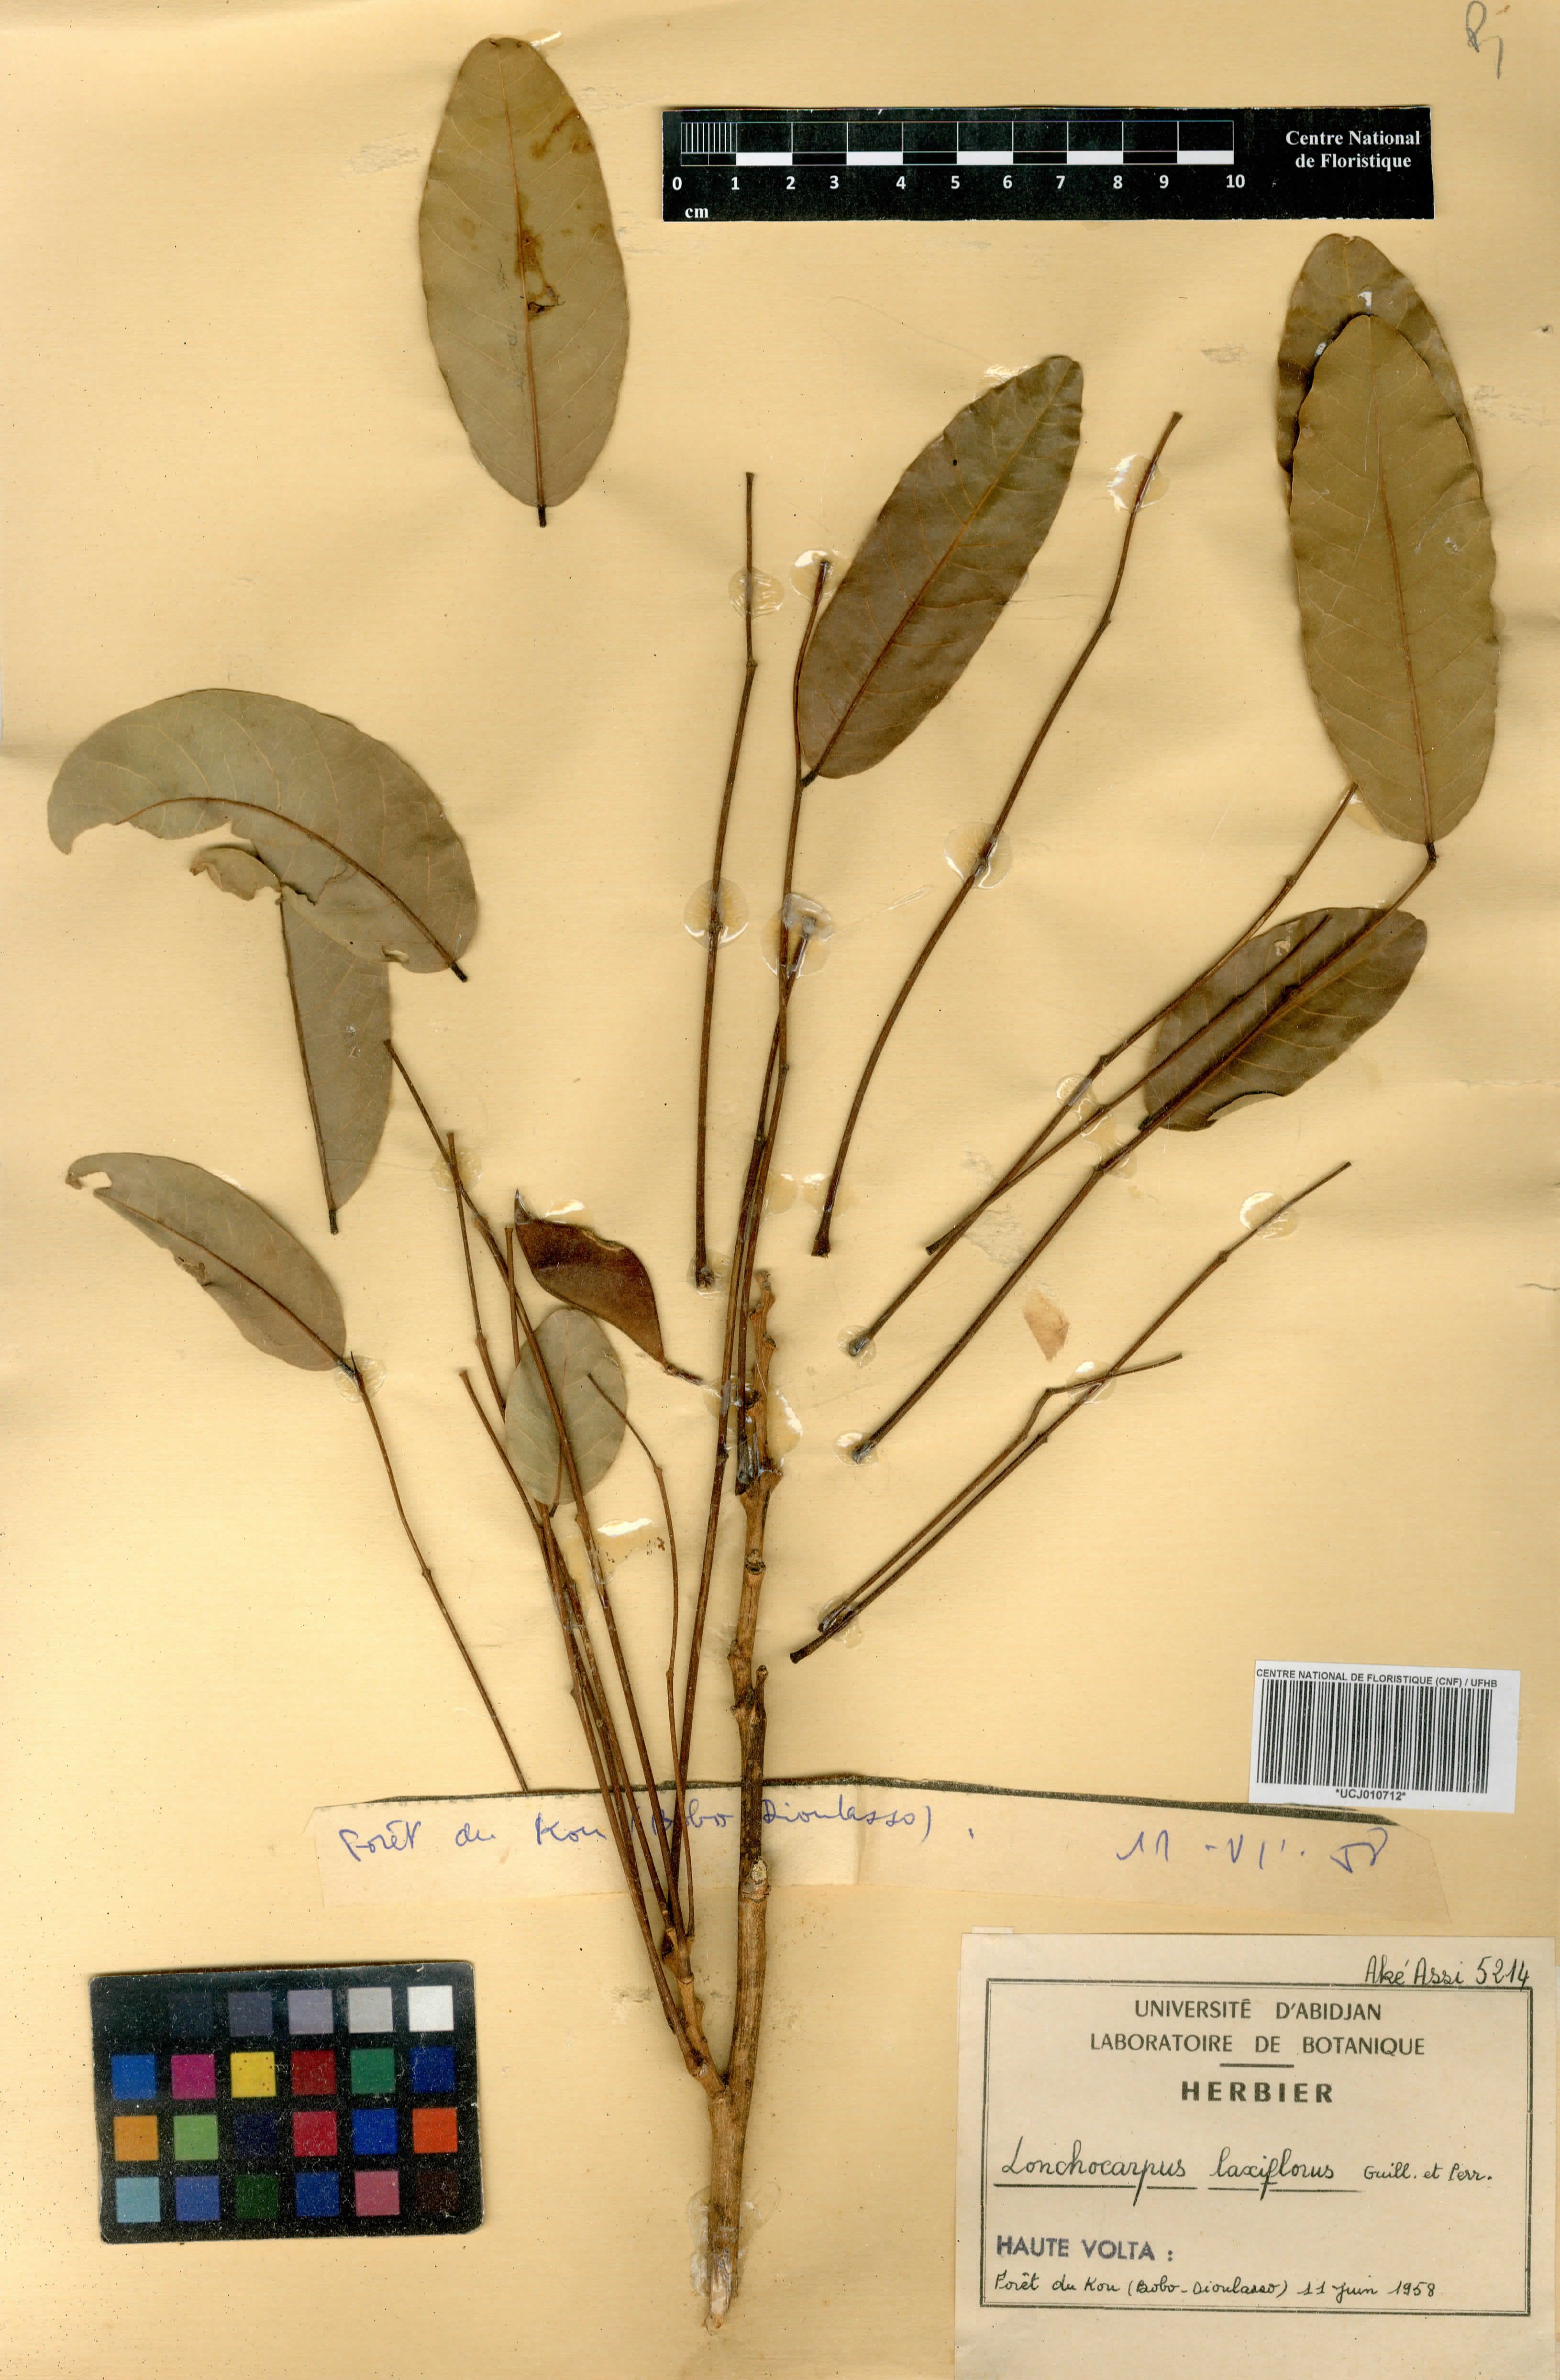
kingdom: Plantae
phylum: Tracheophyta
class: Magnoliopsida
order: Fabales
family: Fabaceae
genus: Philenoptera
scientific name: Philenoptera laxiflora
